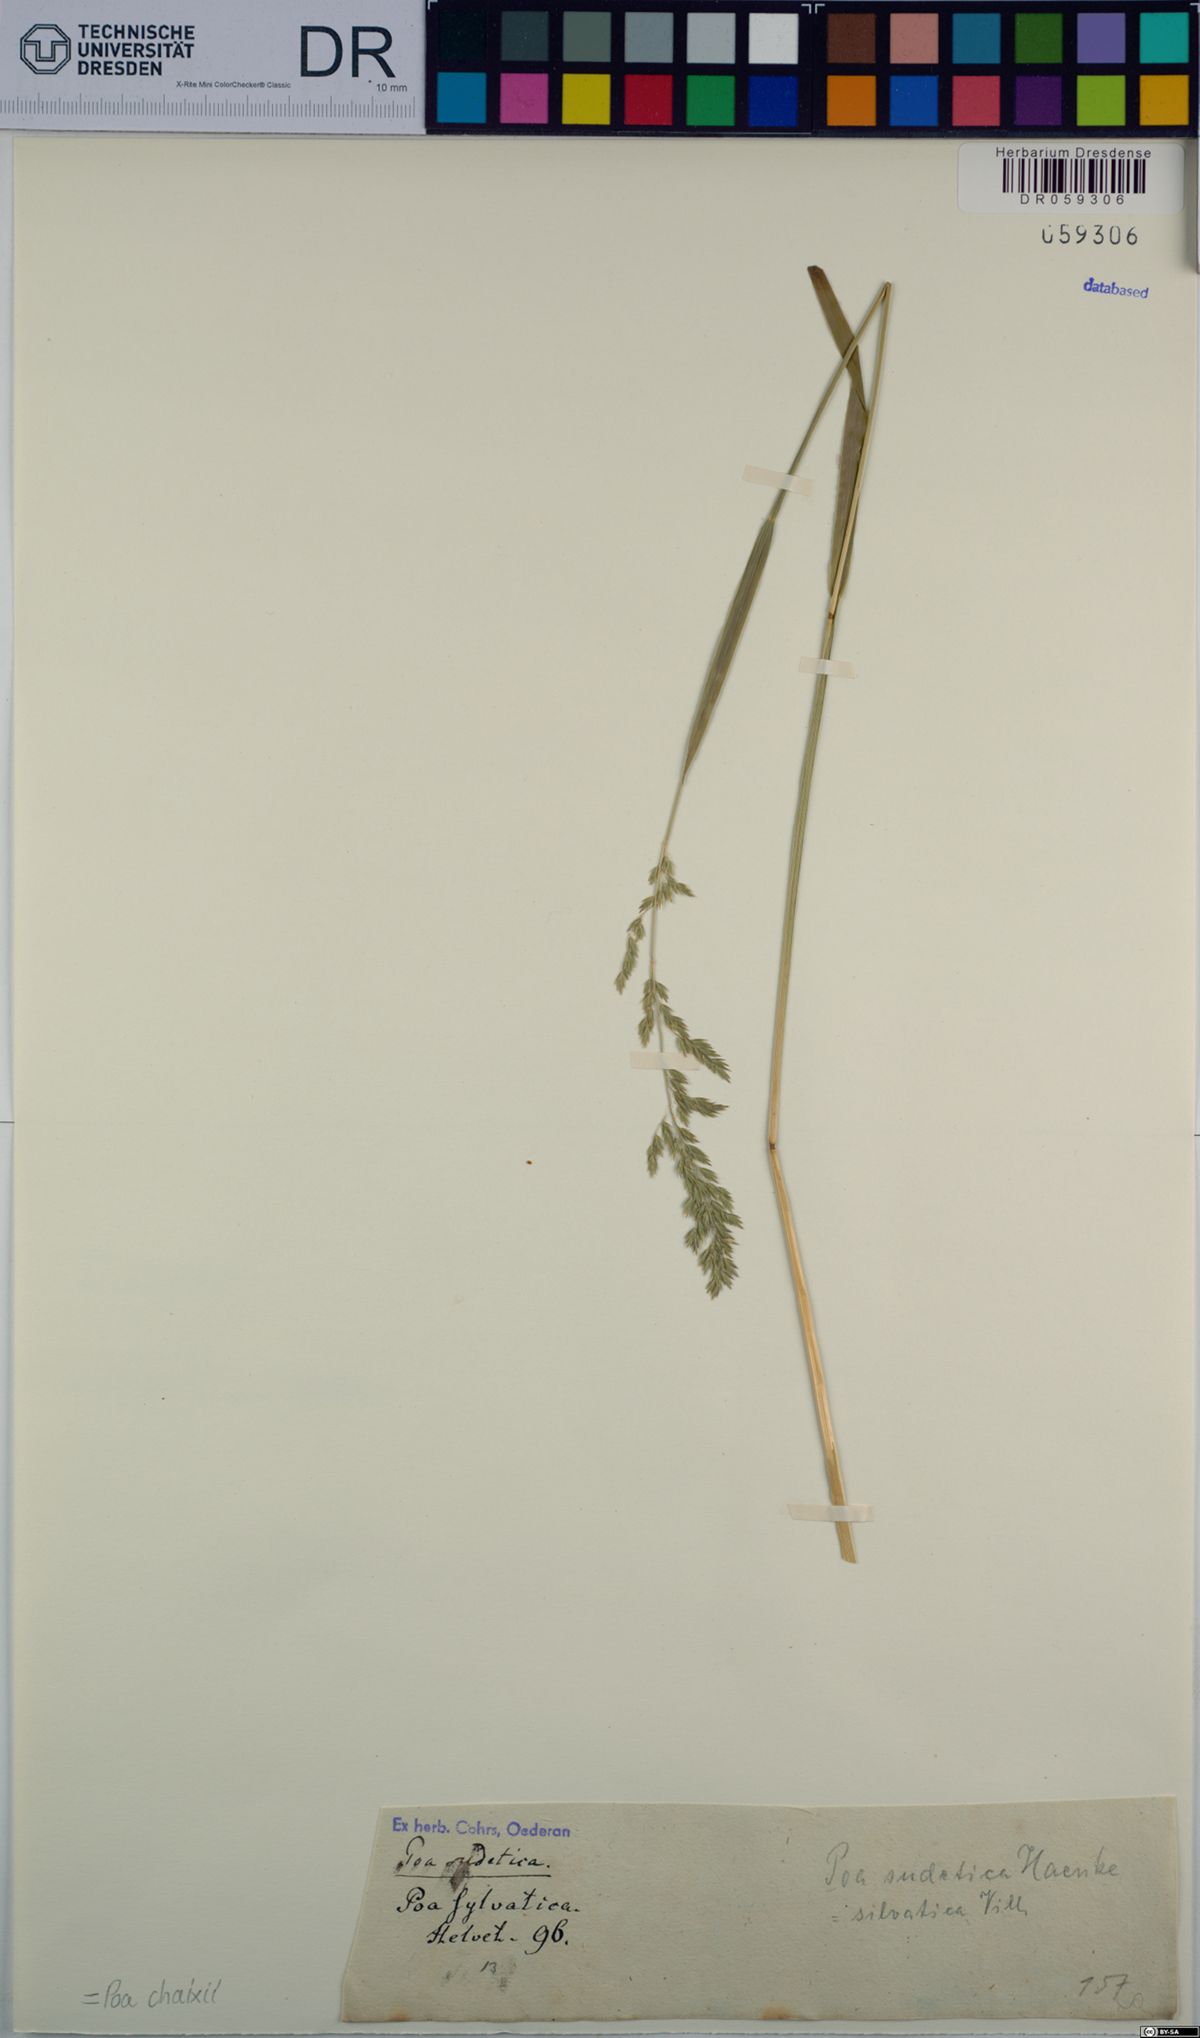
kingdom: Plantae
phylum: Tracheophyta
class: Liliopsida
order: Poales
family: Poaceae
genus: Poa
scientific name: Poa chaixii
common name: Broad-leaved meadow-grass
